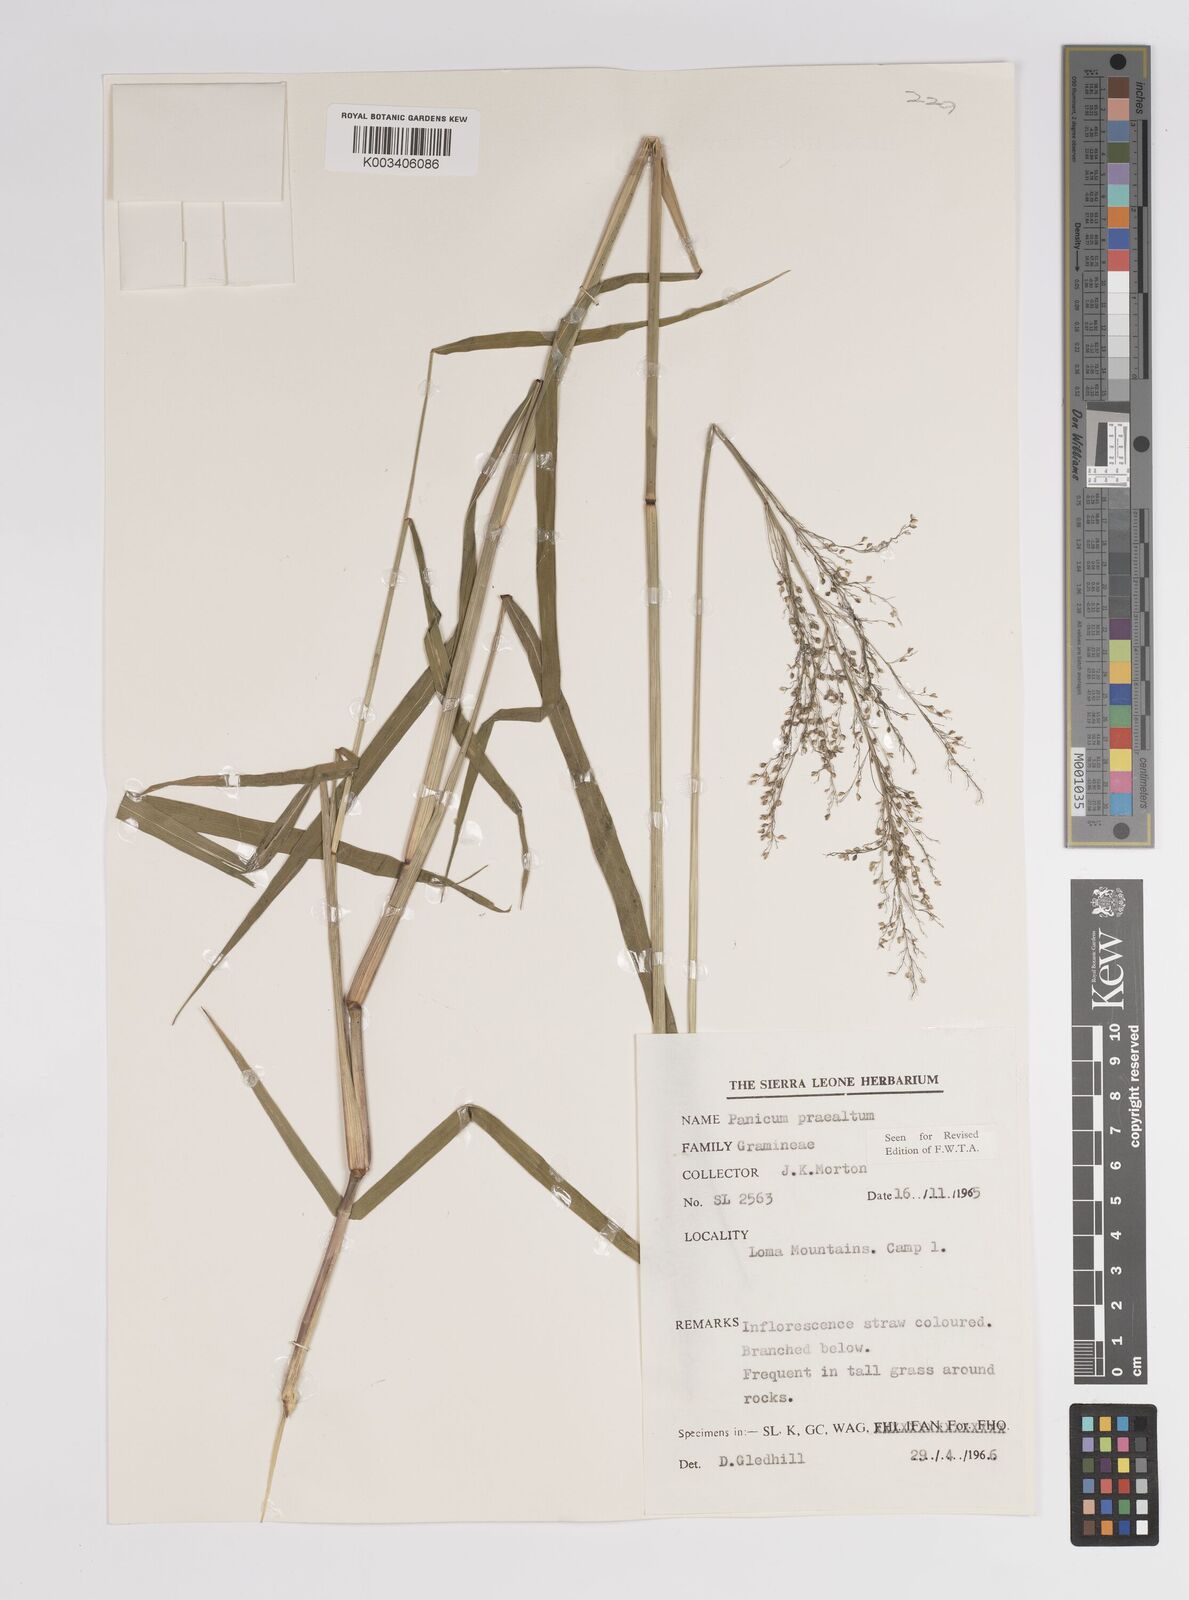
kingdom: Plantae
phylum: Tracheophyta
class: Liliopsida
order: Poales
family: Poaceae
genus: Trichanthecium
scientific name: Trichanthecium praealtum
